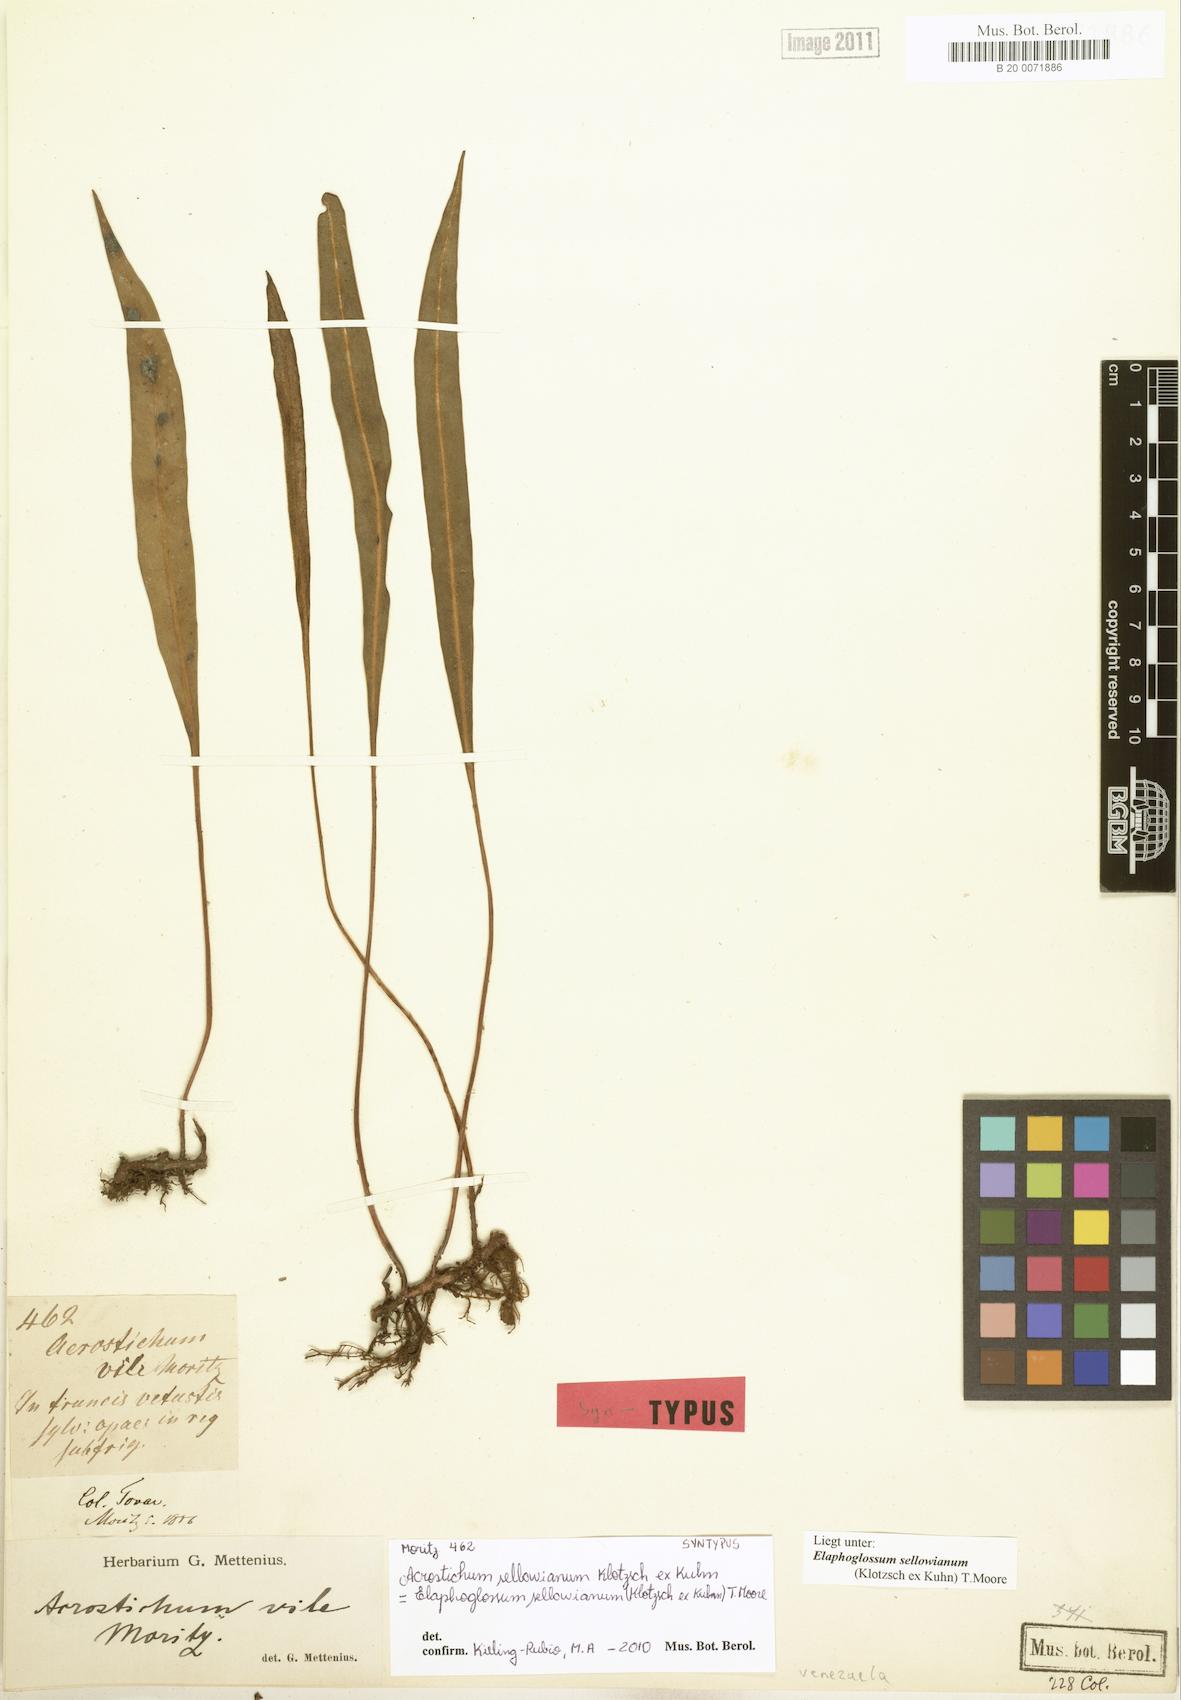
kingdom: Plantae
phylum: Tracheophyta
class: Polypodiopsida
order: Polypodiales
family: Dryopteridaceae
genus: Elaphoglossum
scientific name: Elaphoglossum sellowianum
